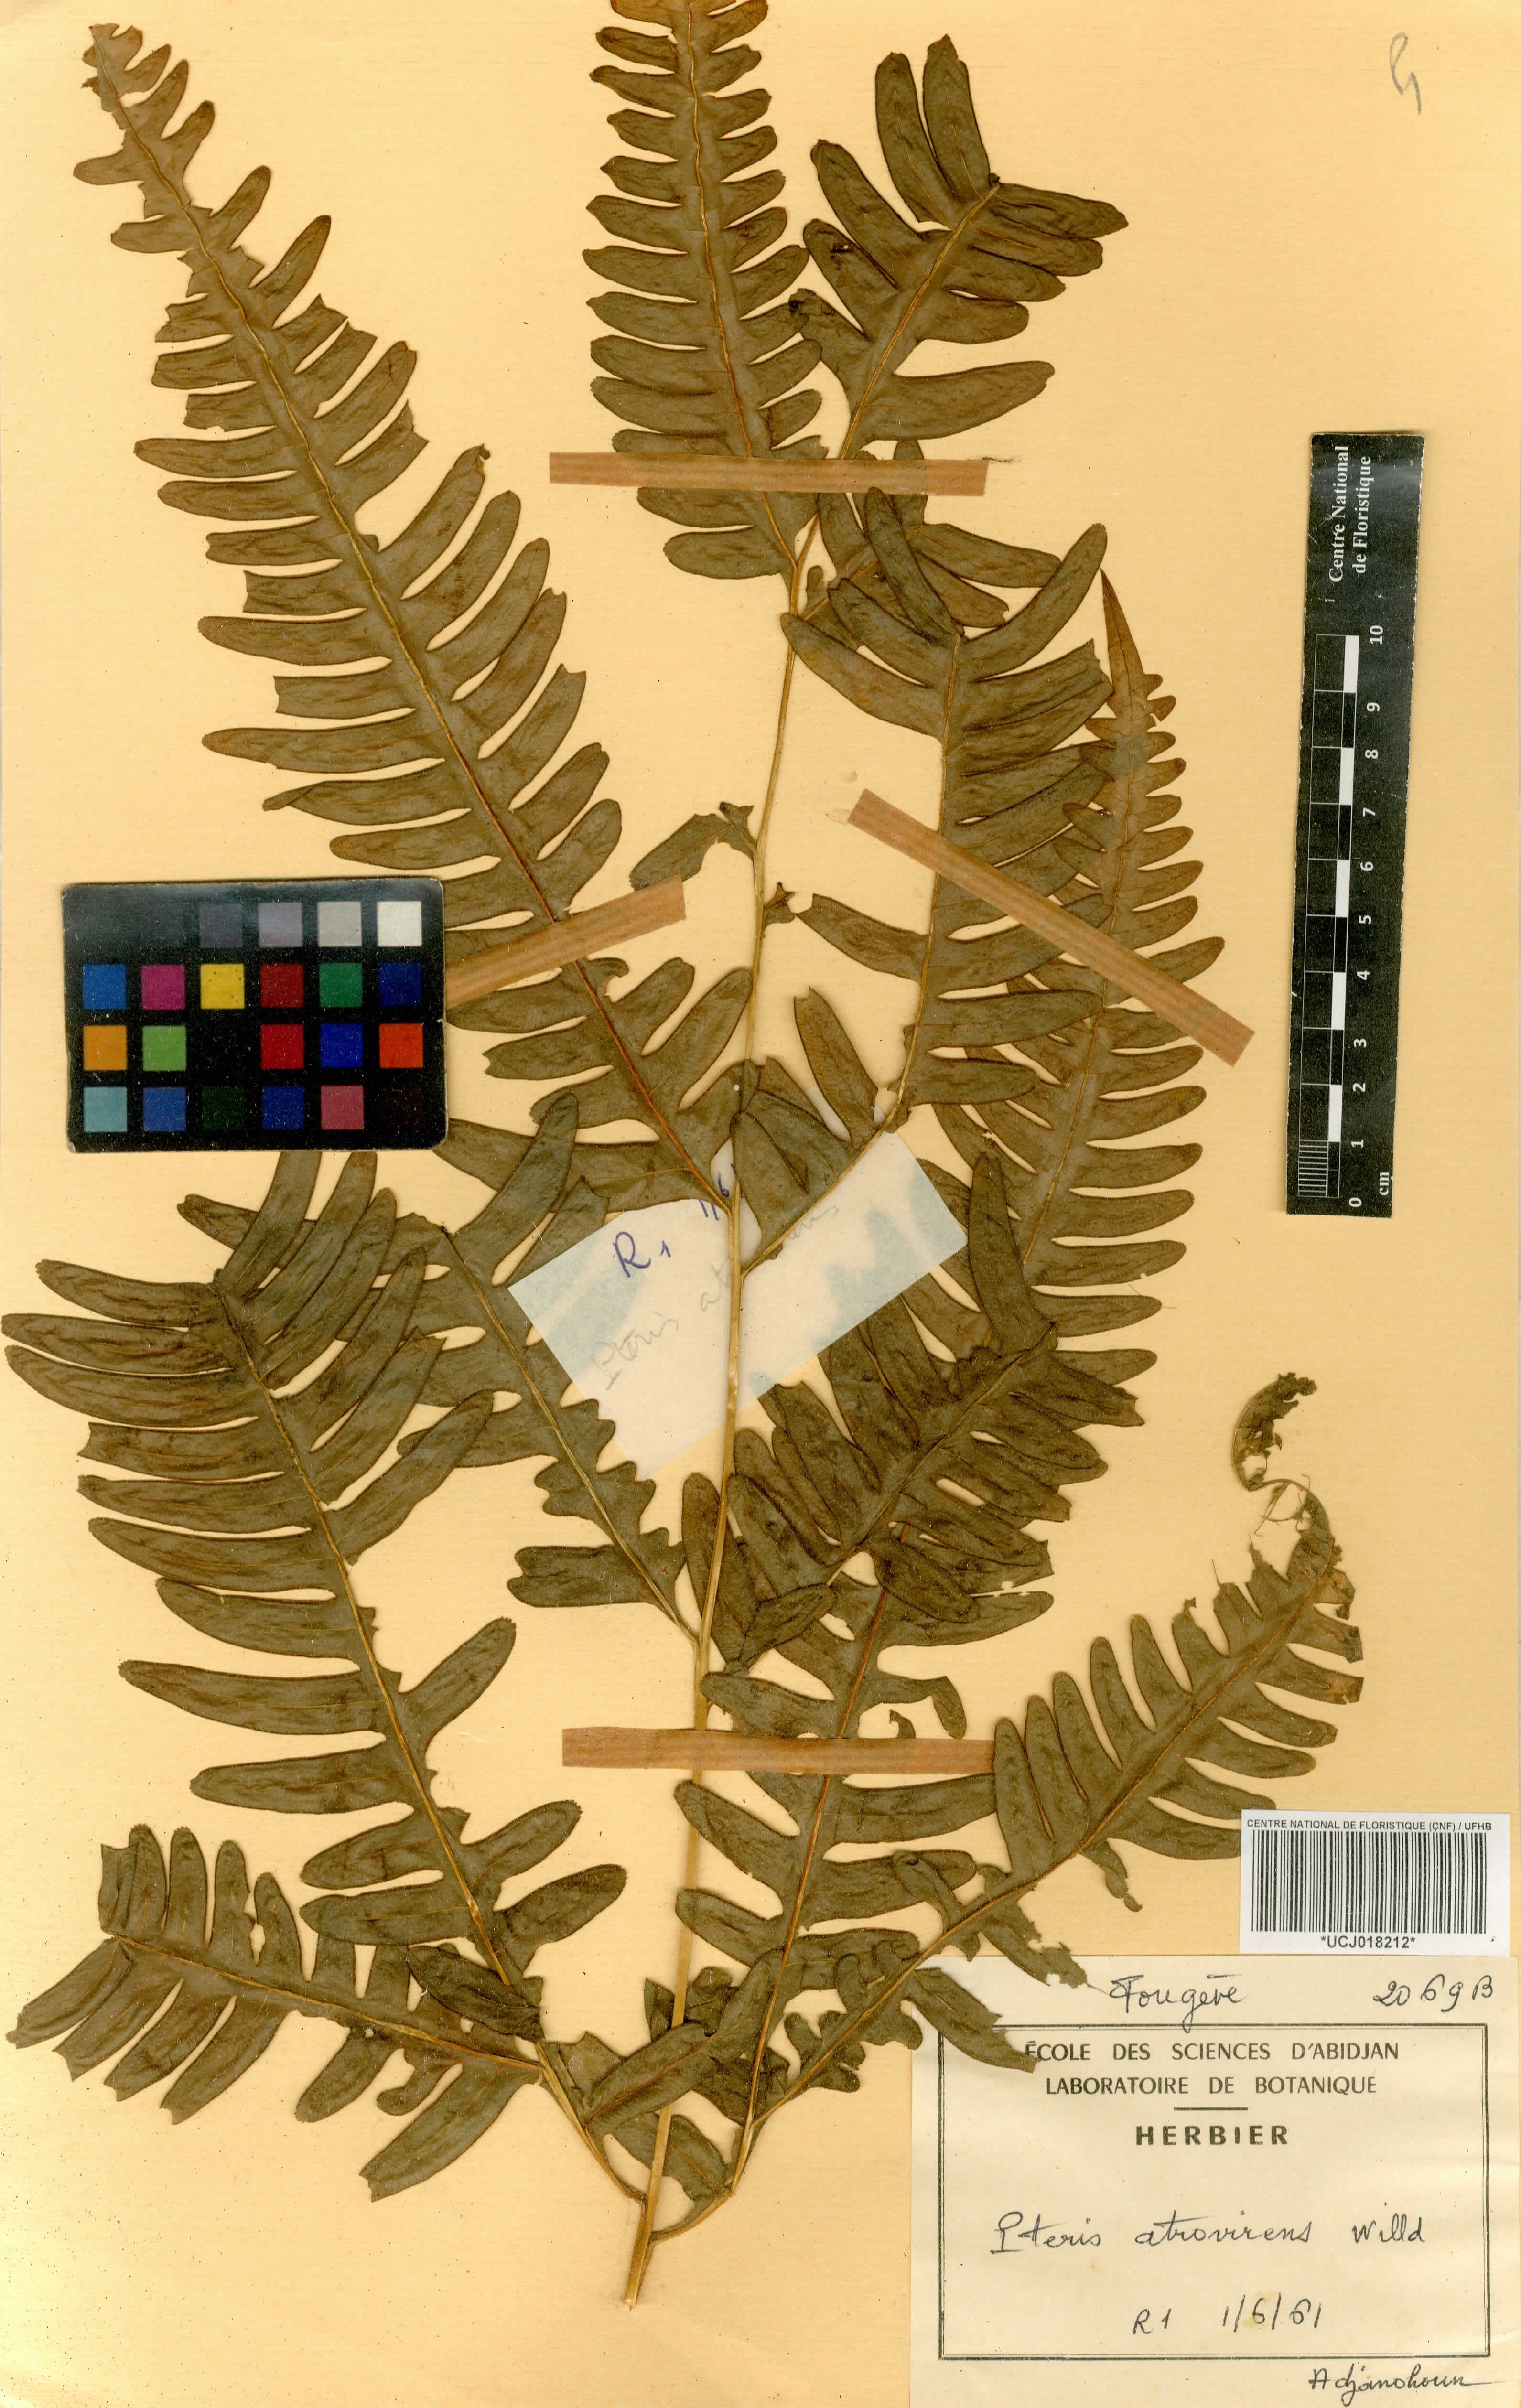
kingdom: Plantae
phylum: Tracheophyta
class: Polypodiopsida
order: Polypodiales
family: Pteridaceae
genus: Pteris
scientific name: Pteris atrovirens
